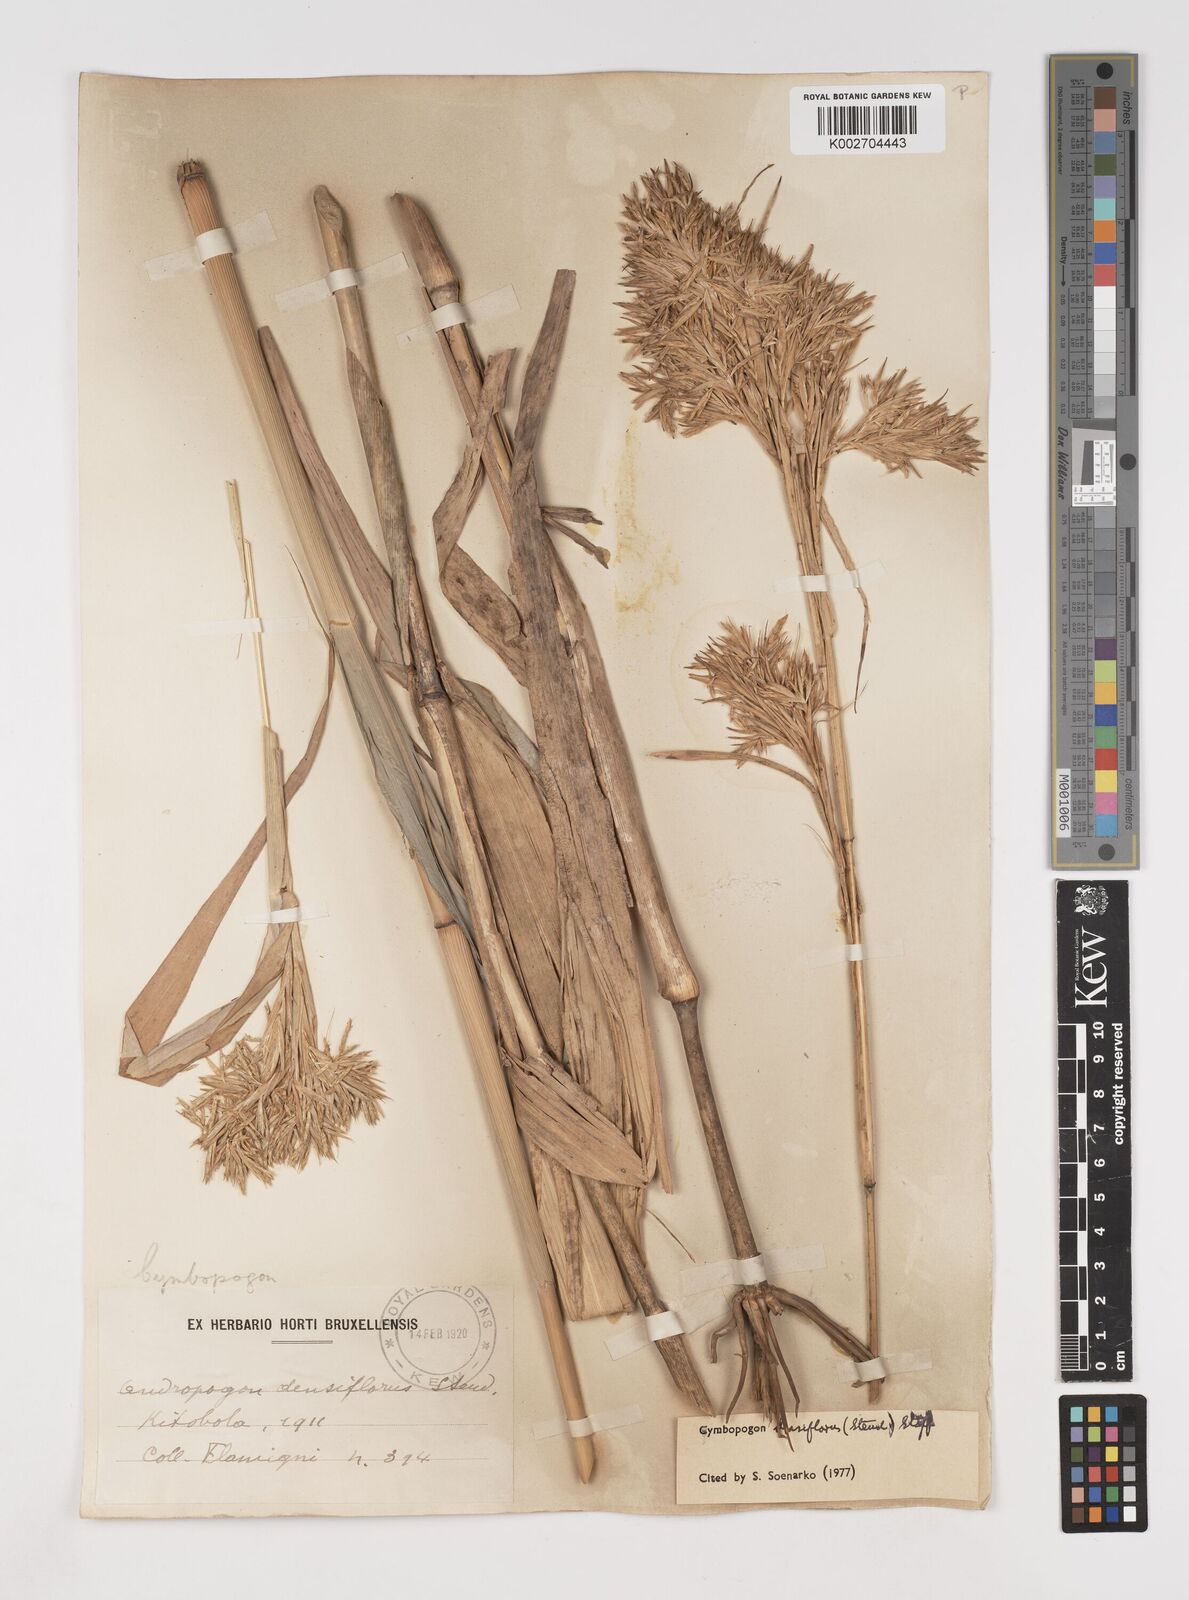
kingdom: Plantae
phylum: Tracheophyta
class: Liliopsida
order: Poales
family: Poaceae
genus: Cymbopogon
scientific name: Cymbopogon densiflorus
